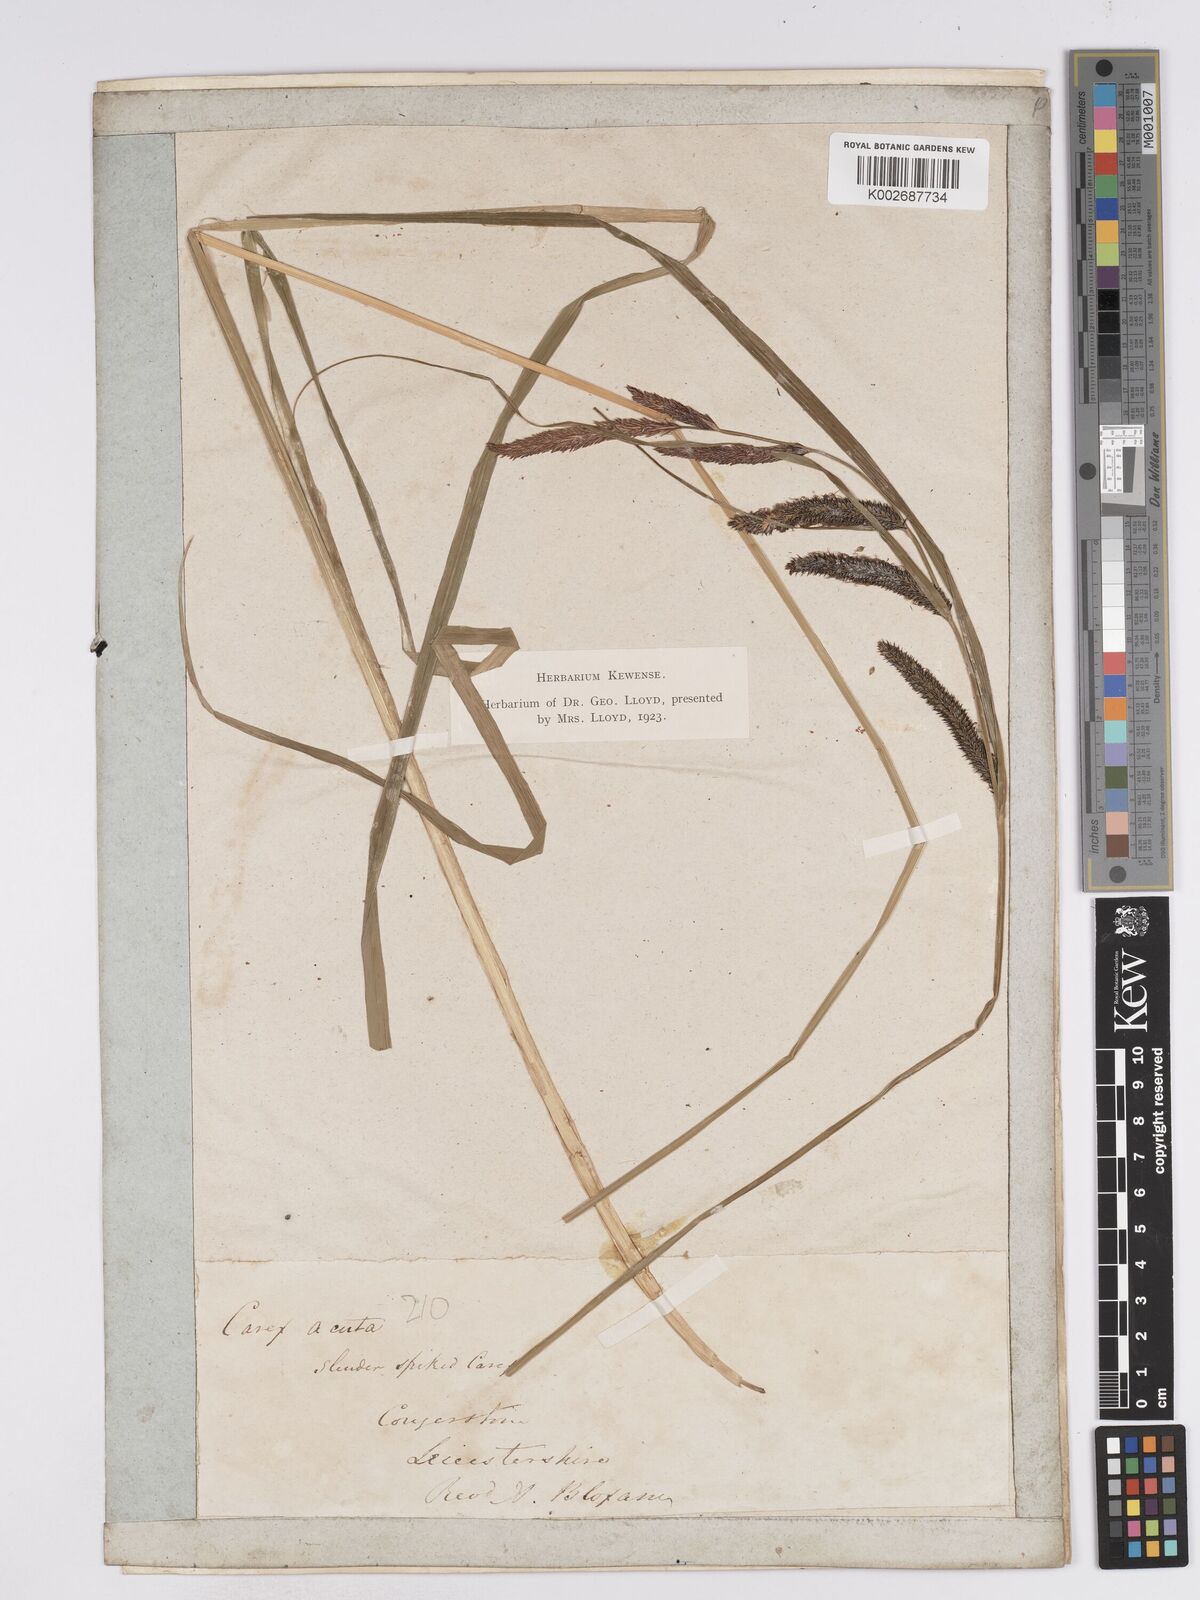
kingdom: Plantae
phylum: Tracheophyta
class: Liliopsida
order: Poales
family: Cyperaceae
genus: Carex
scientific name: Carex acuta
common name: Slender tufted-sedge
